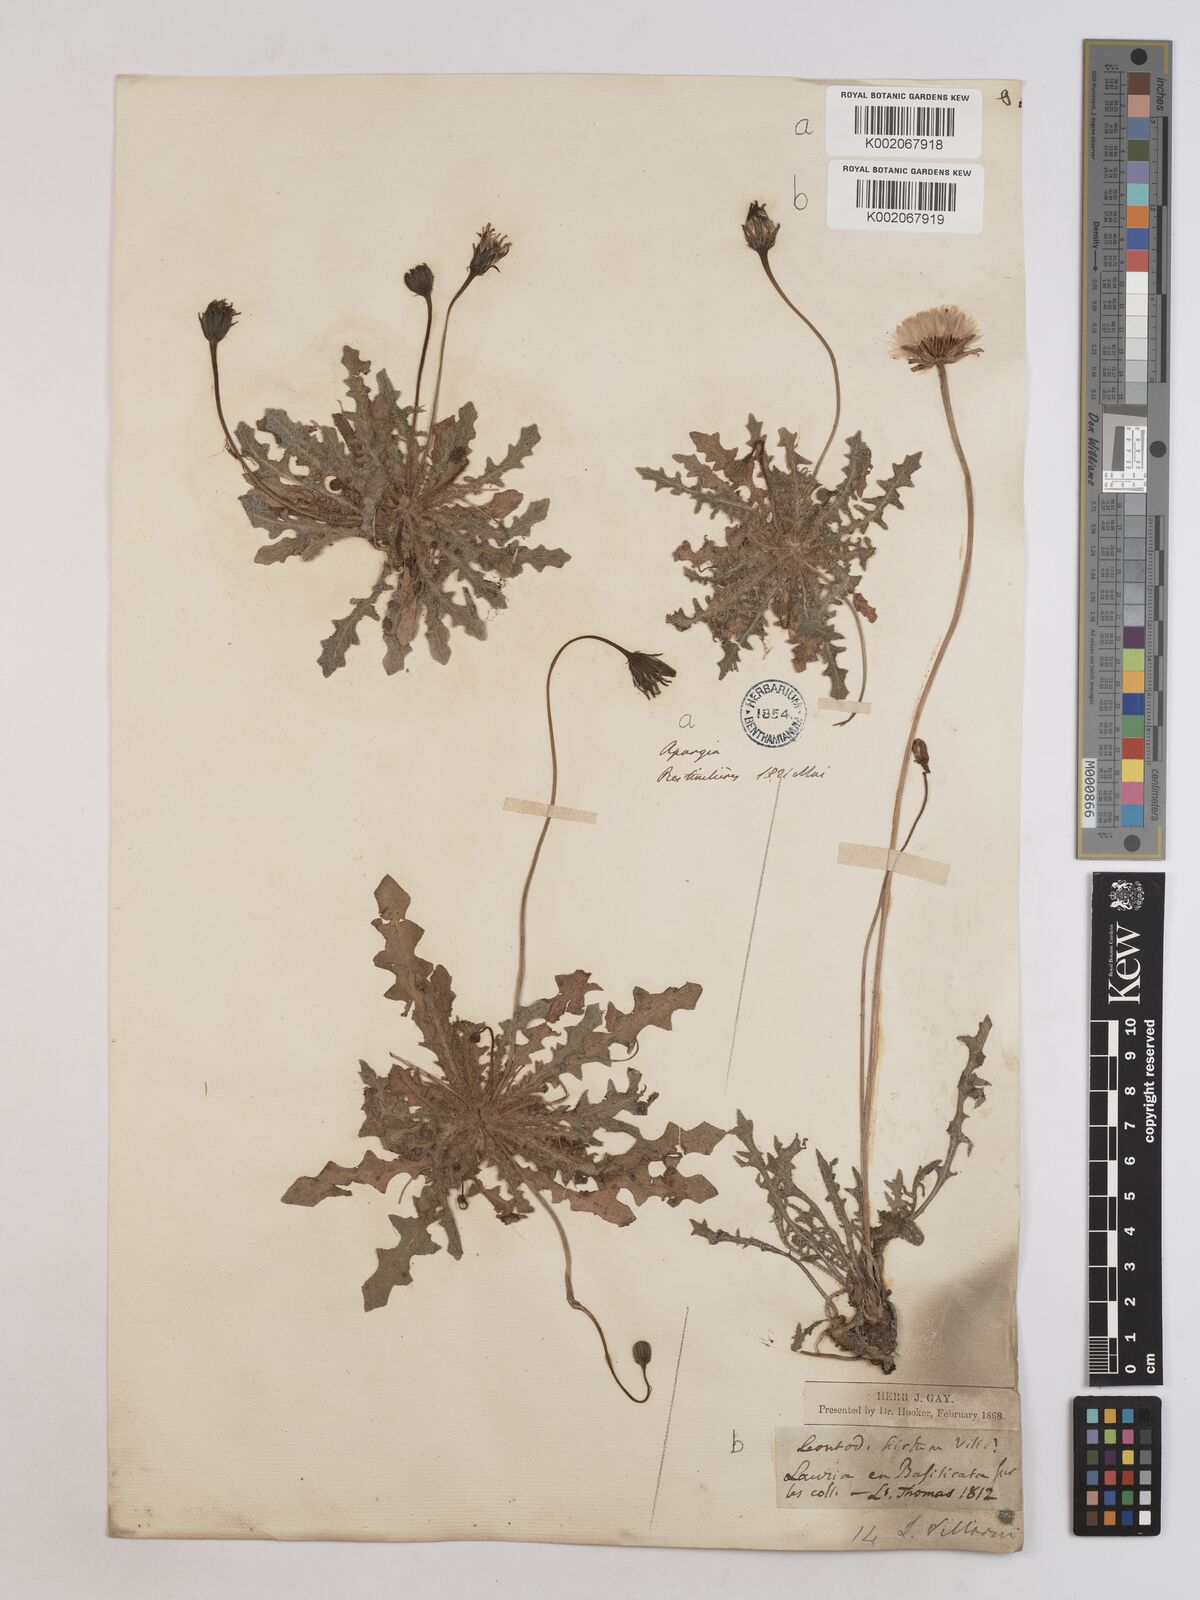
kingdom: Plantae
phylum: Tracheophyta
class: Magnoliopsida
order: Asterales
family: Asteraceae
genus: Leontodon
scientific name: Leontodon hirtus
